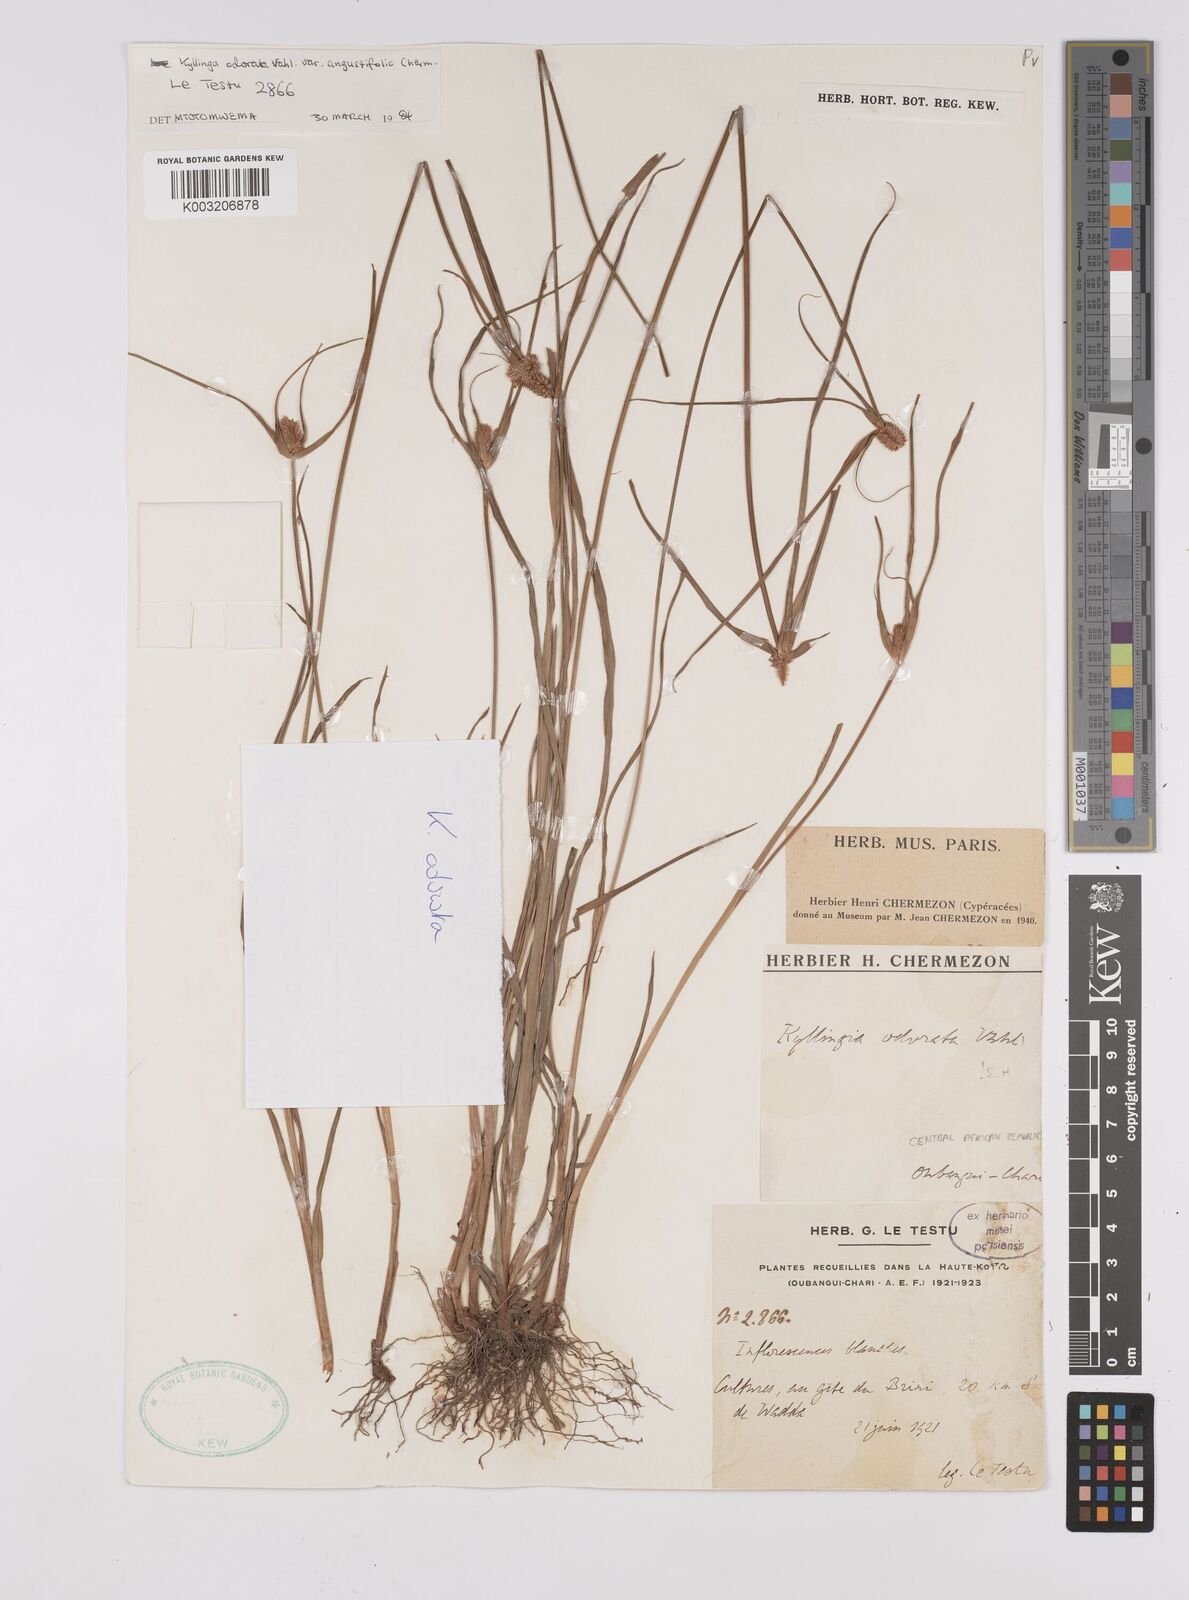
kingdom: Plantae
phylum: Tracheophyta
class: Liliopsida
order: Poales
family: Cyperaceae
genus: Cyperus
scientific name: Cyperus odoratus
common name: Fragrant flatsedge
